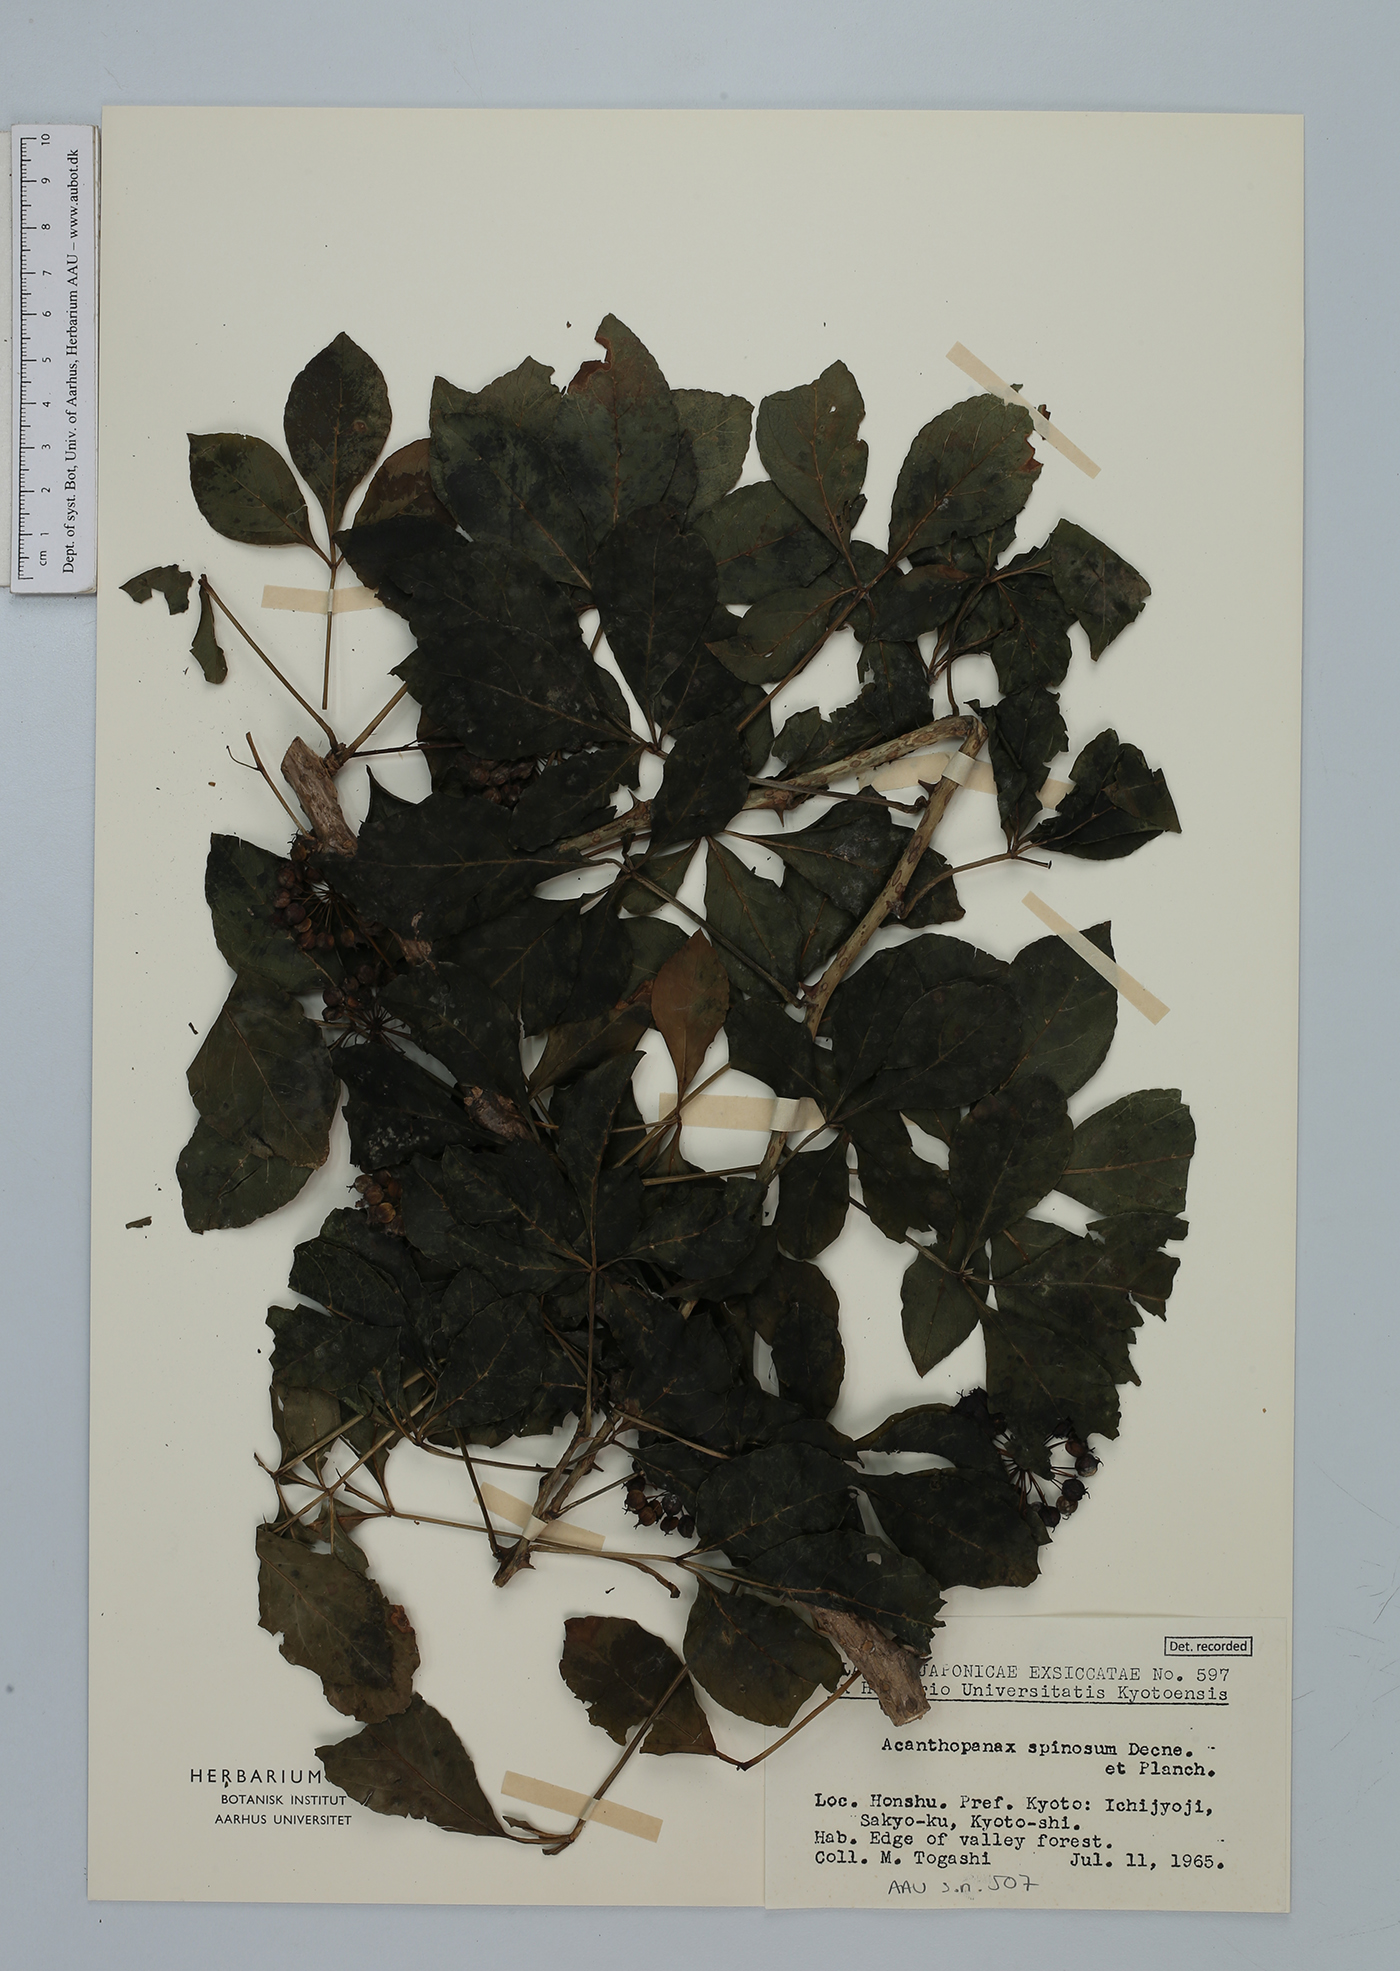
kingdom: Plantae
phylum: Tracheophyta
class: Magnoliopsida
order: Apiales
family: Araliaceae
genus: Eleutherococcus
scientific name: Eleutherococcus spinosus
